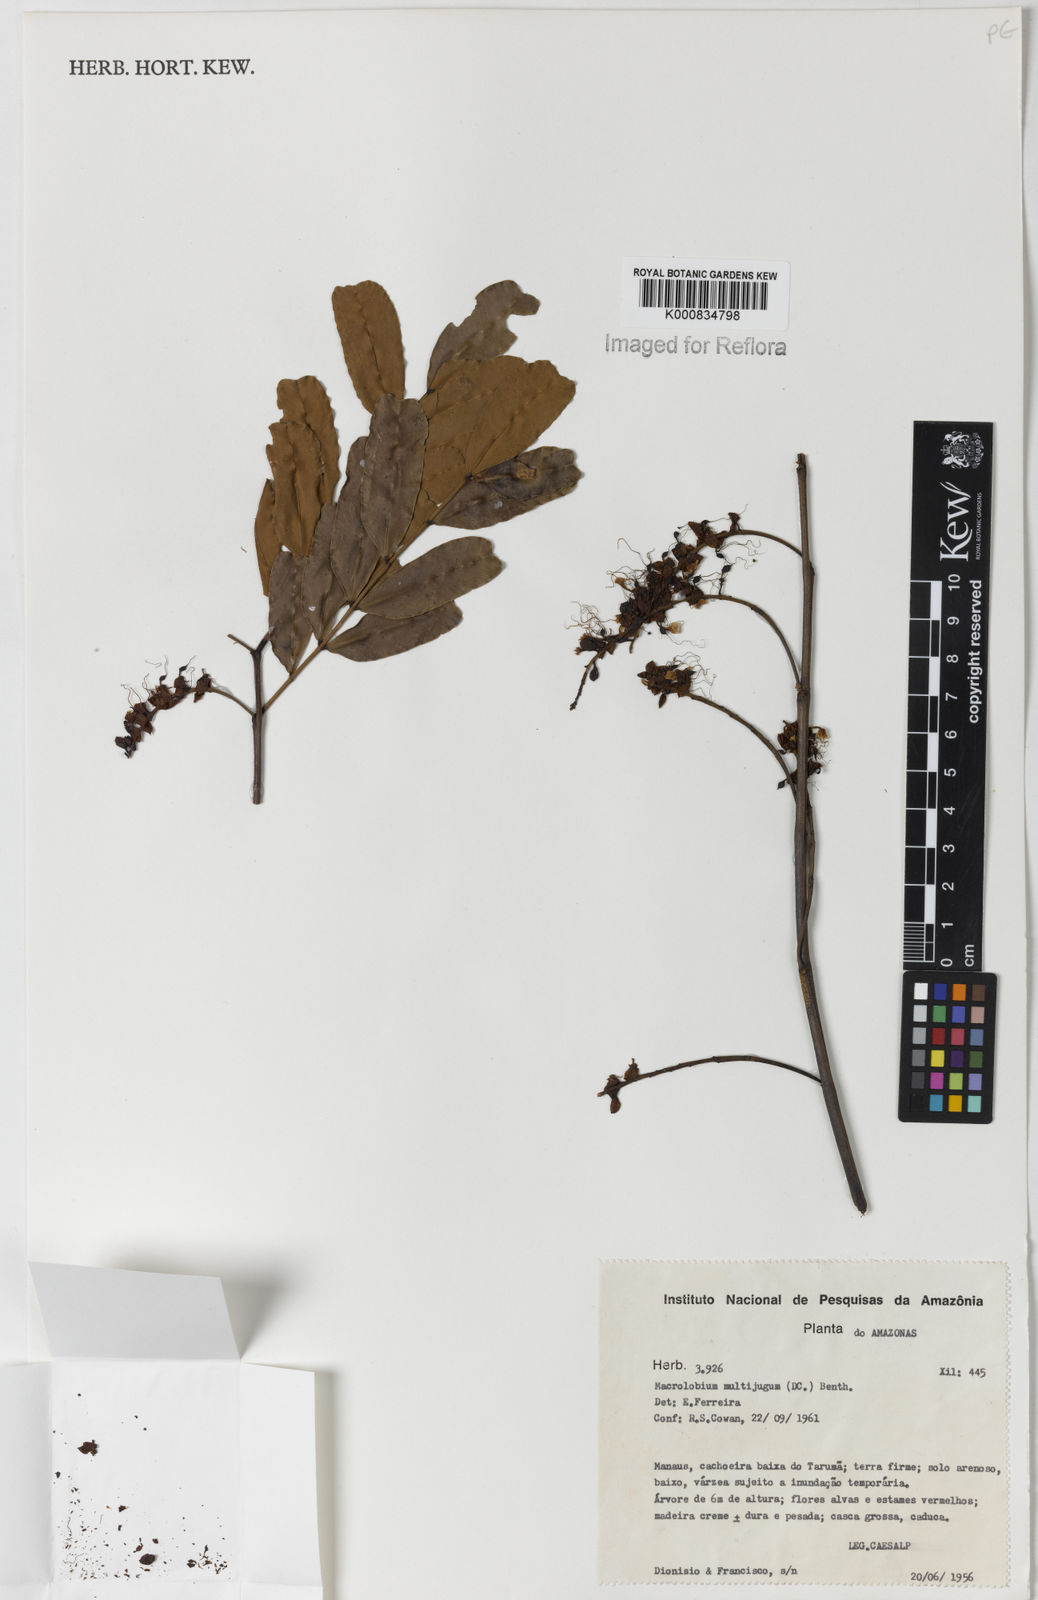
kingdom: Plantae
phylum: Tracheophyta
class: Magnoliopsida
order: Fabales
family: Fabaceae
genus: Macrolobium
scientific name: Macrolobium multijugum
